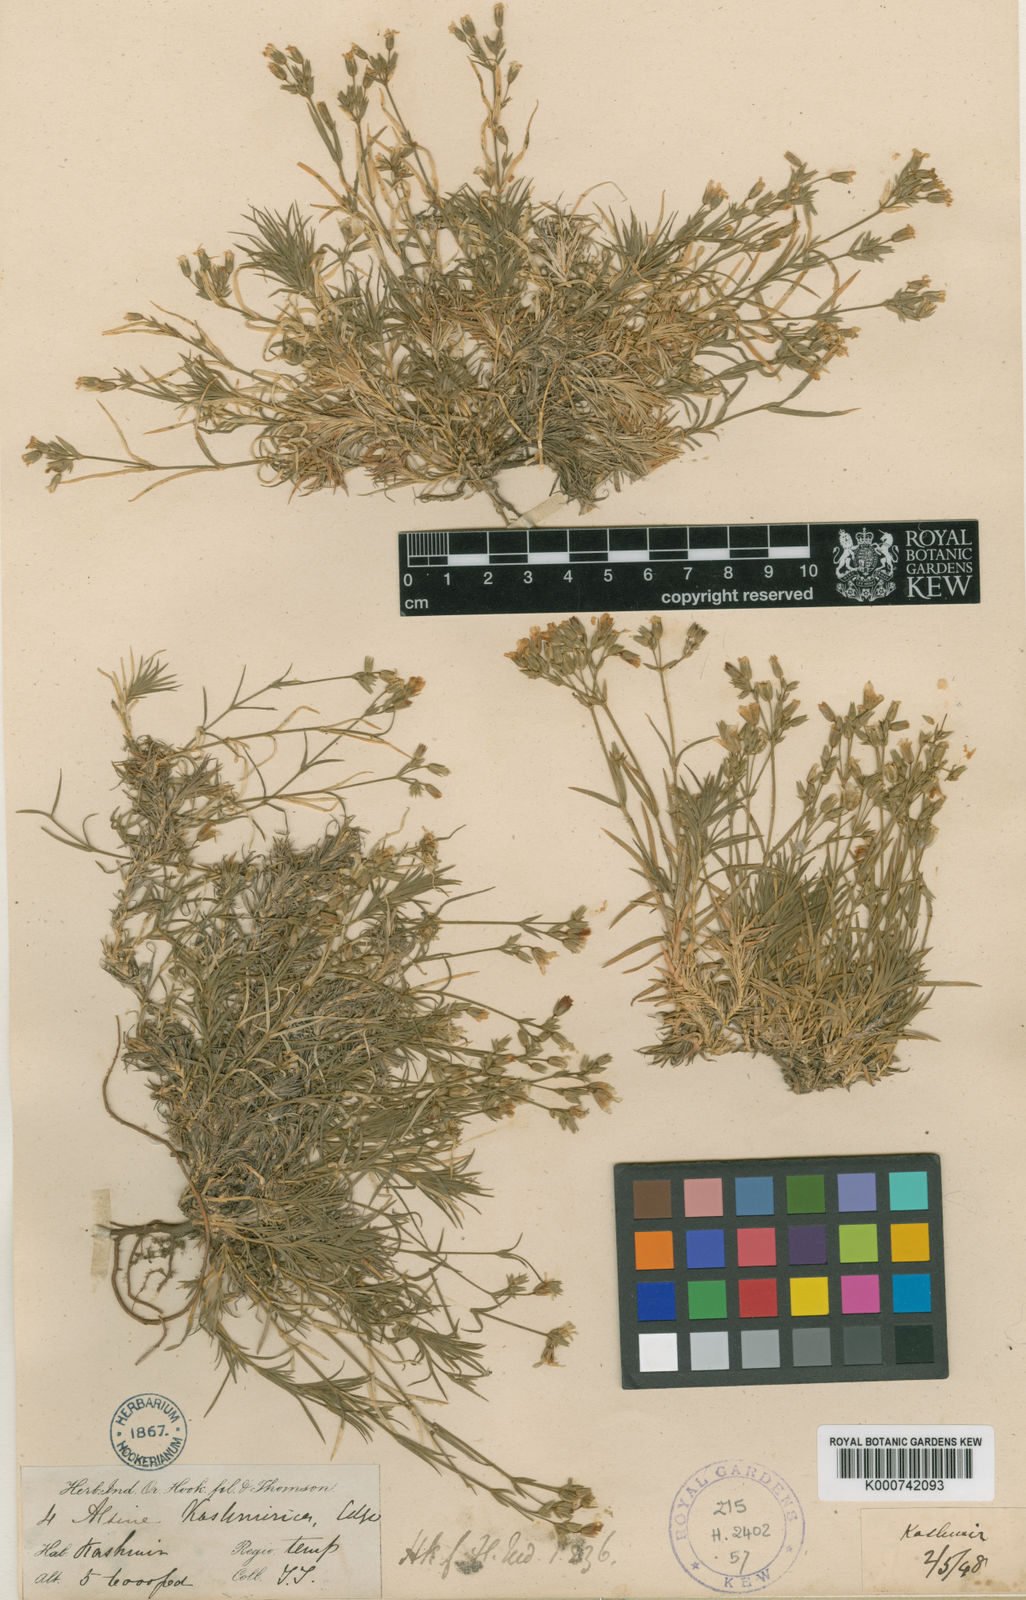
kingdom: Plantae
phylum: Tracheophyta
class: Magnoliopsida
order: Caryophyllales
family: Caryophyllaceae
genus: Sabulina
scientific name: Sabulina foliosa
